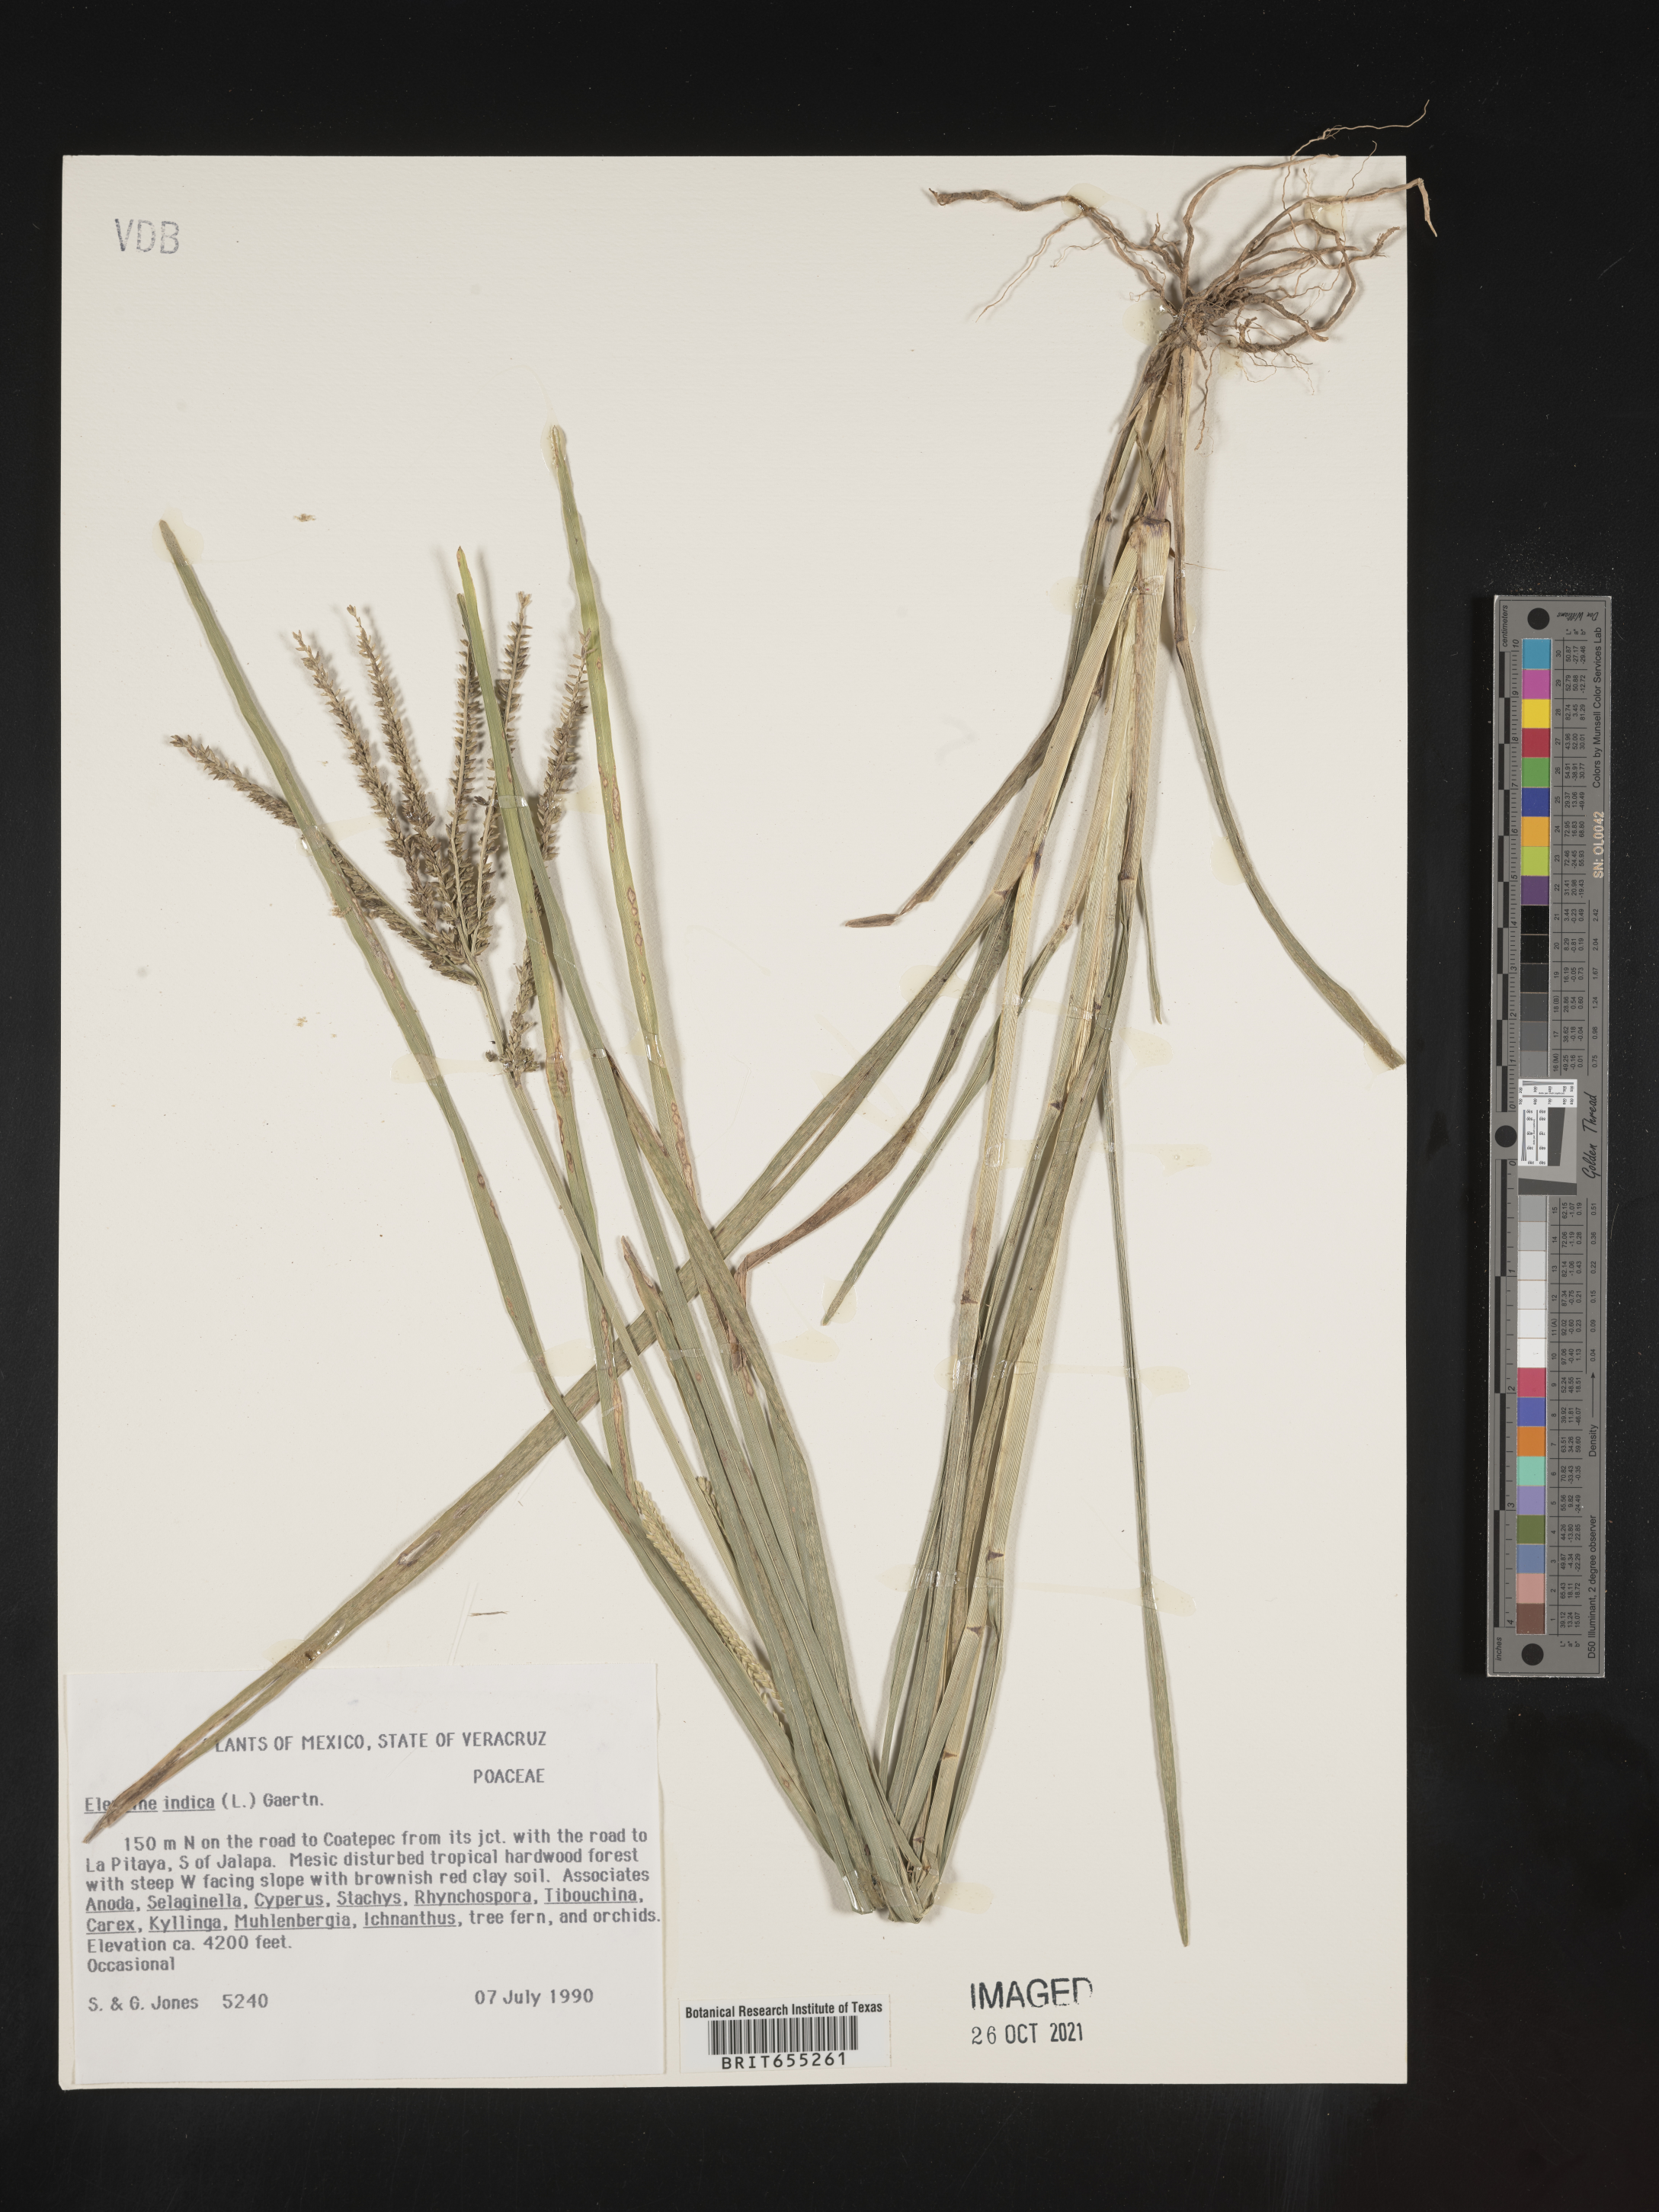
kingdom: Plantae
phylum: Tracheophyta
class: Liliopsida
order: Poales
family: Poaceae
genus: Eleusine
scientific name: Eleusine
